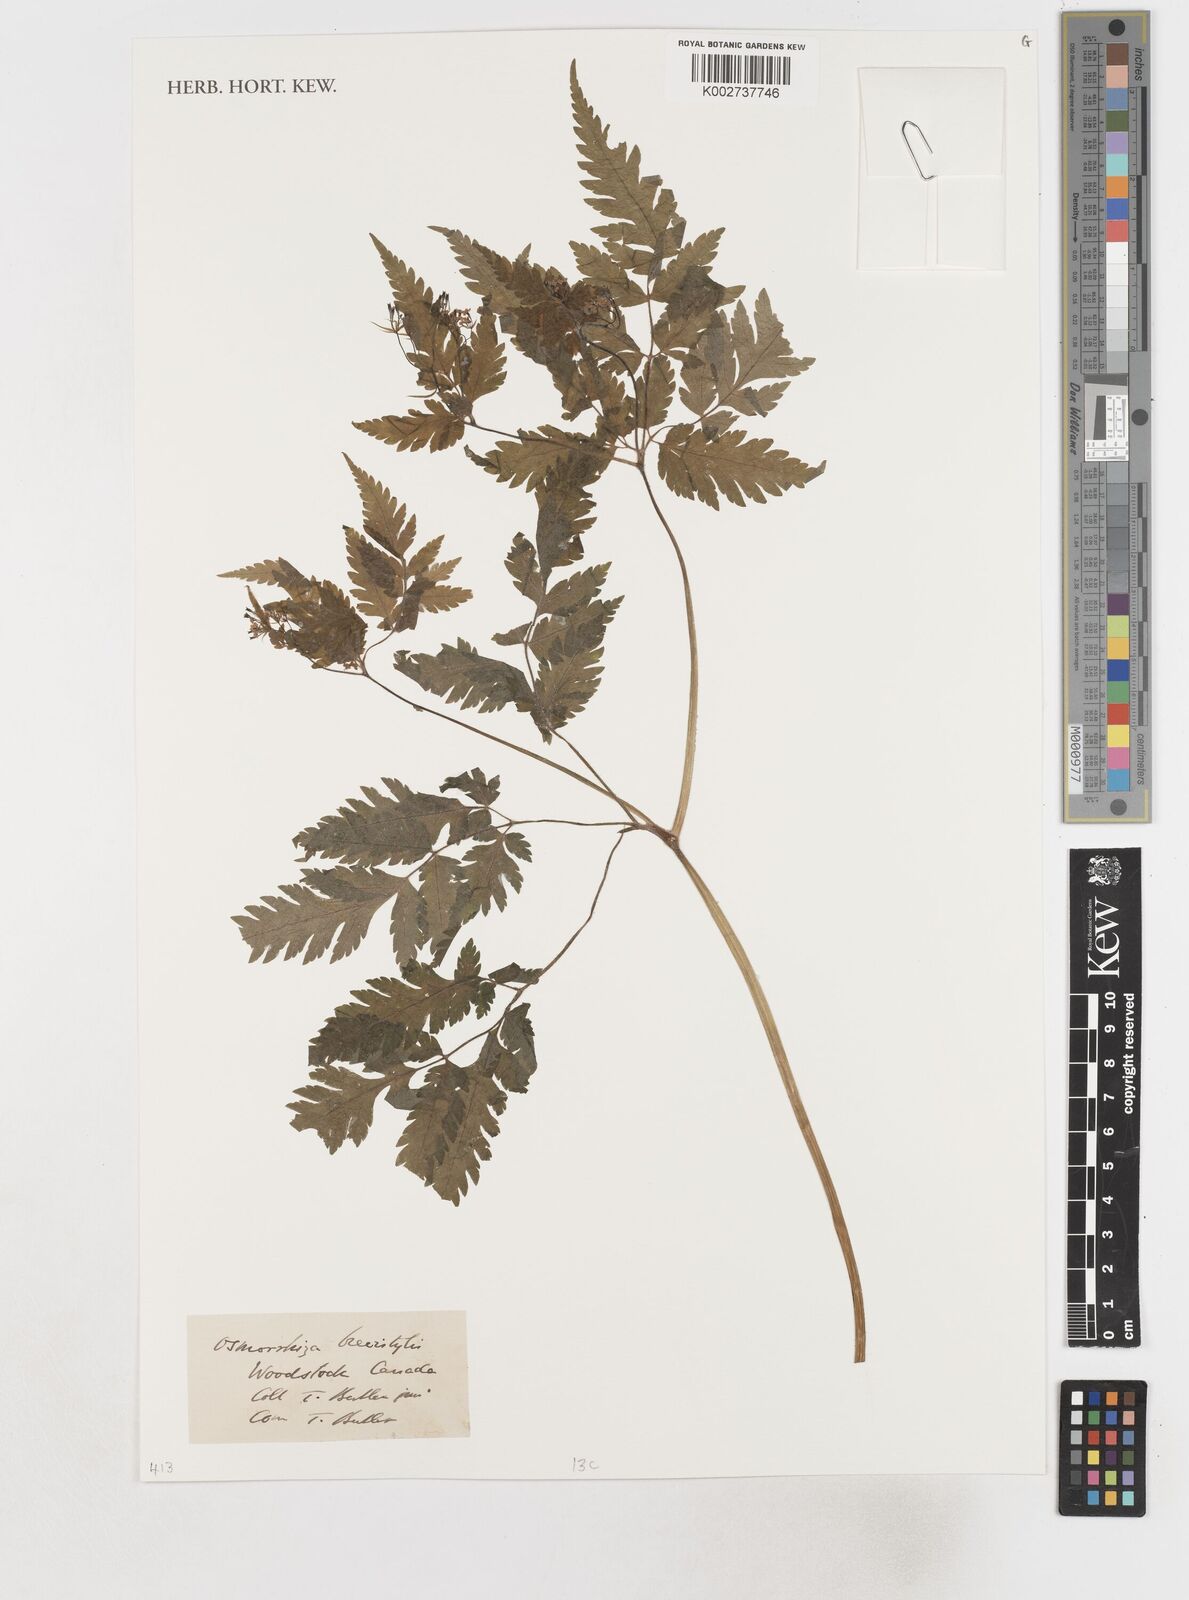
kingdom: Plantae
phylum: Tracheophyta
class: Magnoliopsida
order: Apiales
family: Apiaceae
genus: Osmorhiza
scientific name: Osmorhiza claytonii
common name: Hairy sweet cicely
